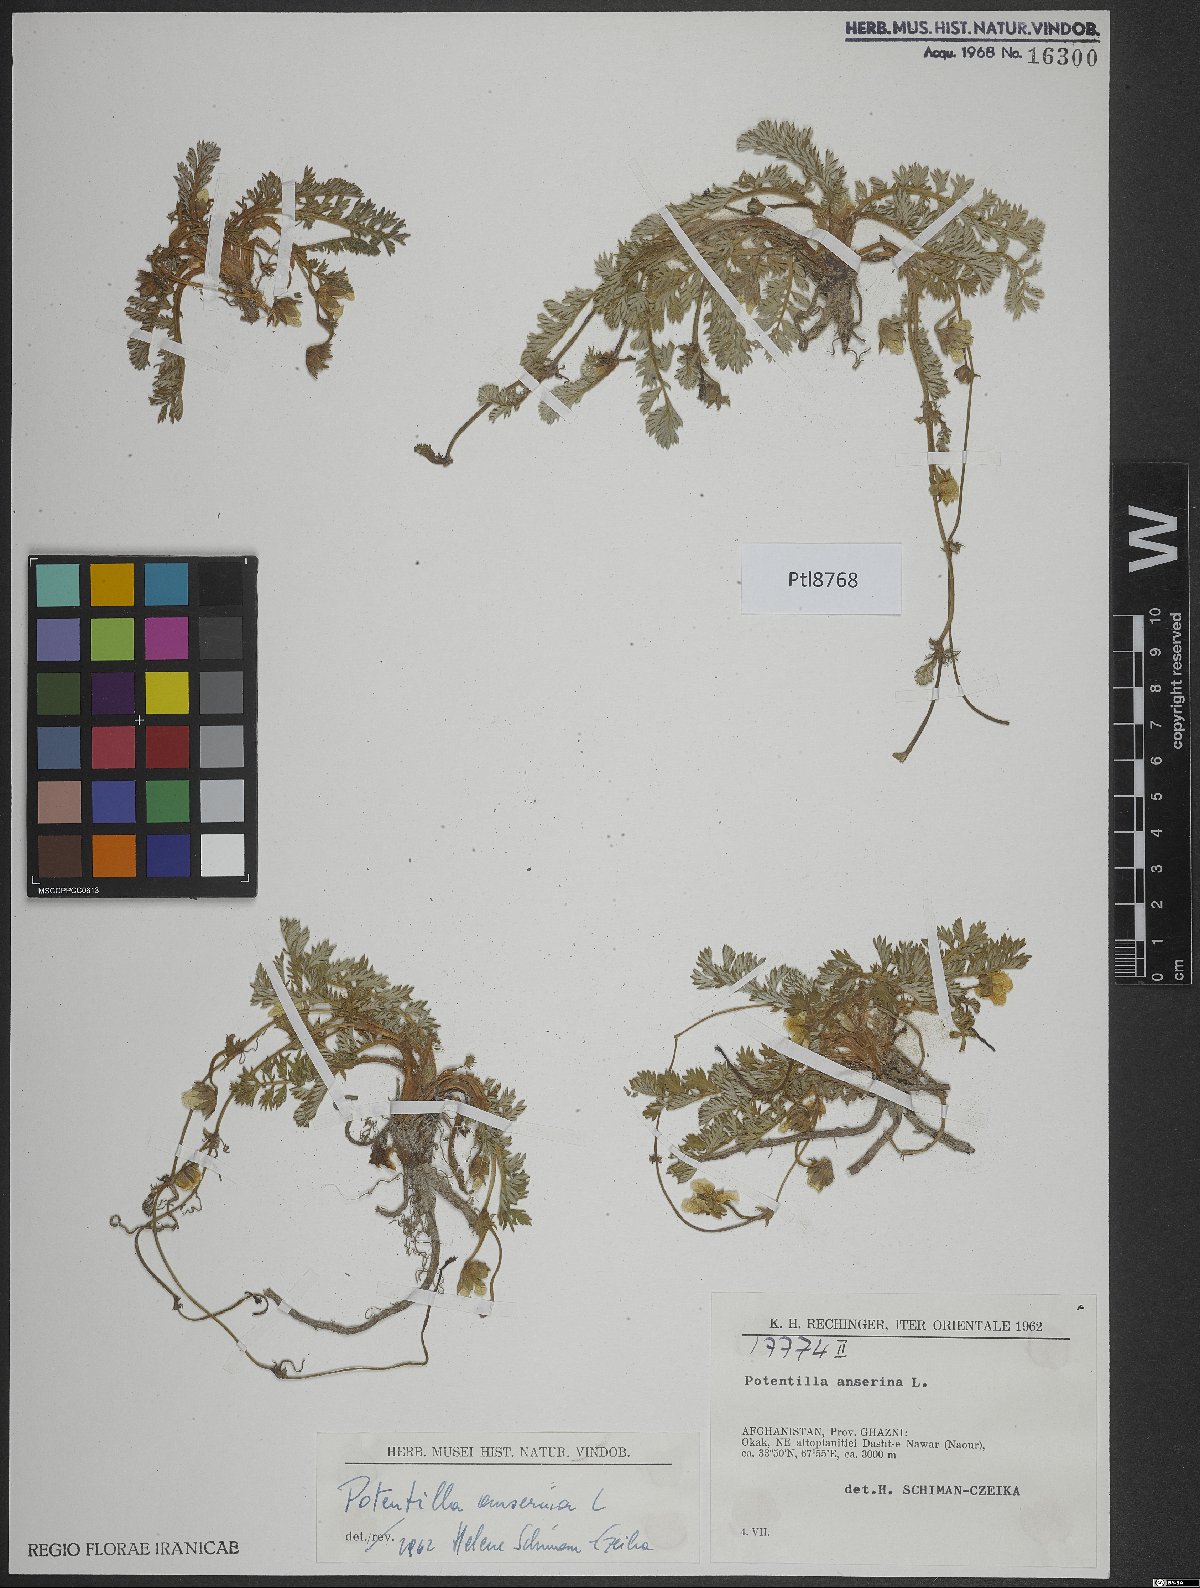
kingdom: Plantae
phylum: Tracheophyta
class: Magnoliopsida
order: Rosales
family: Rosaceae
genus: Argentina
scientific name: Argentina anserina
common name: Common silverweed
